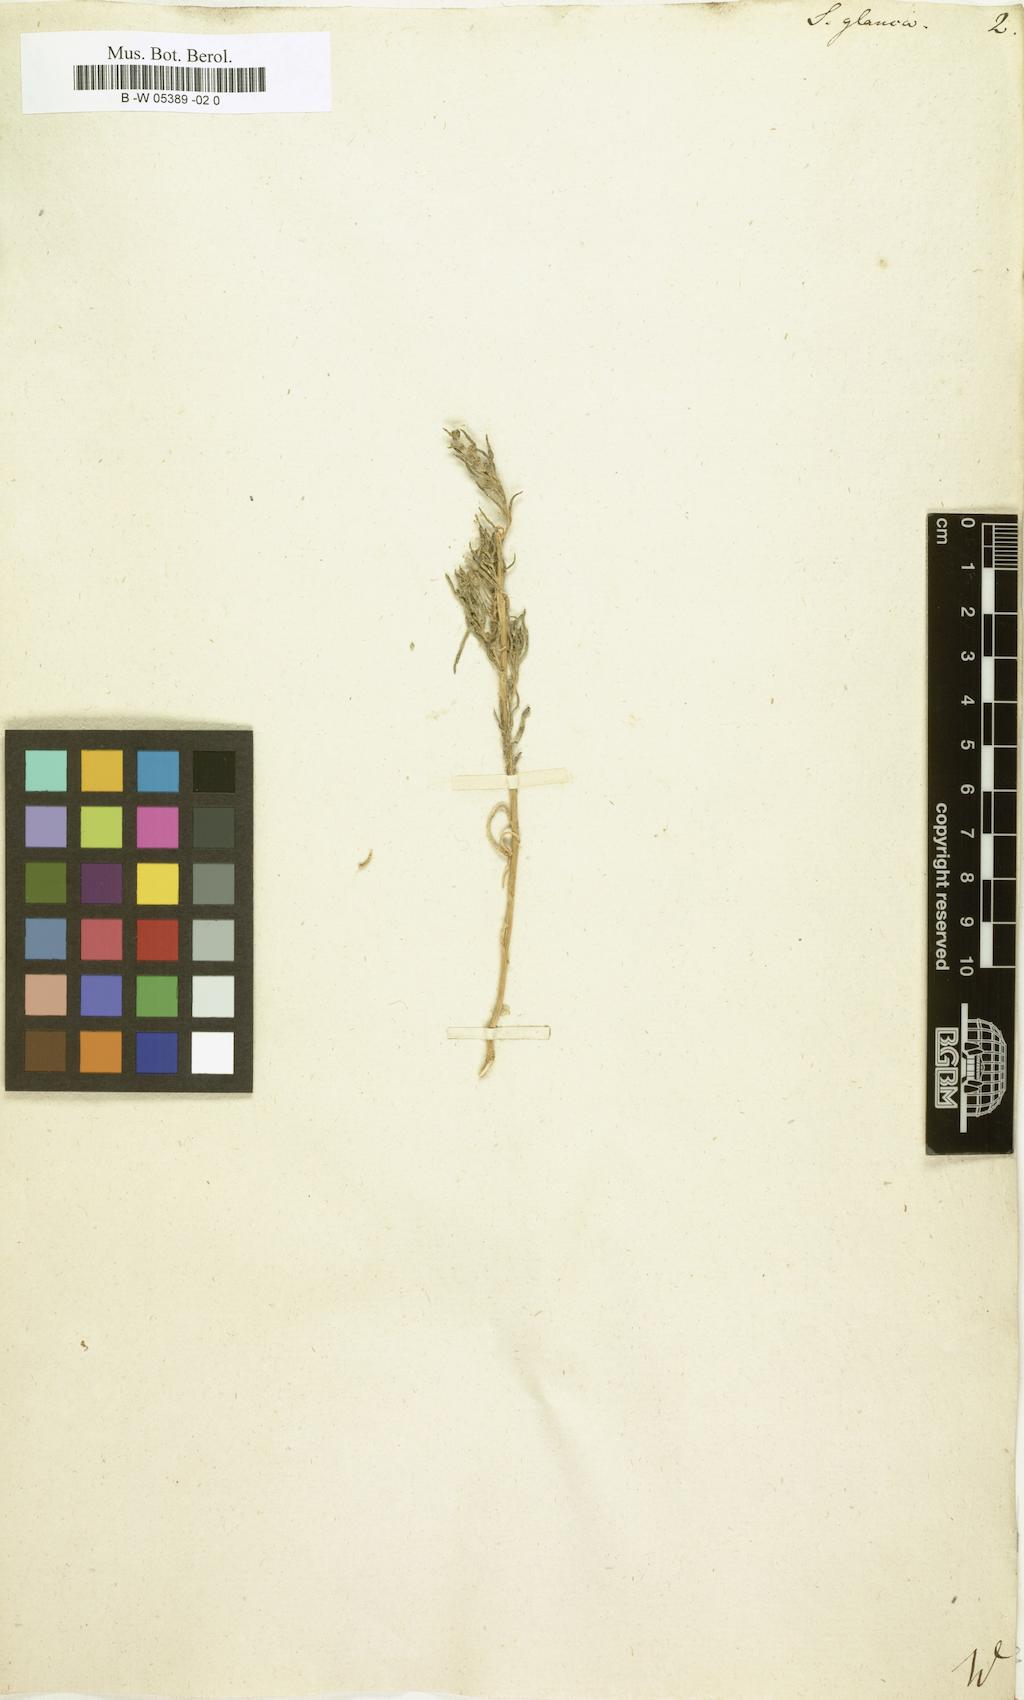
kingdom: Plantae
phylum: Tracheophyta
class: Magnoliopsida
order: Caryophyllales
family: Amaranthaceae
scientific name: Amaranthaceae
